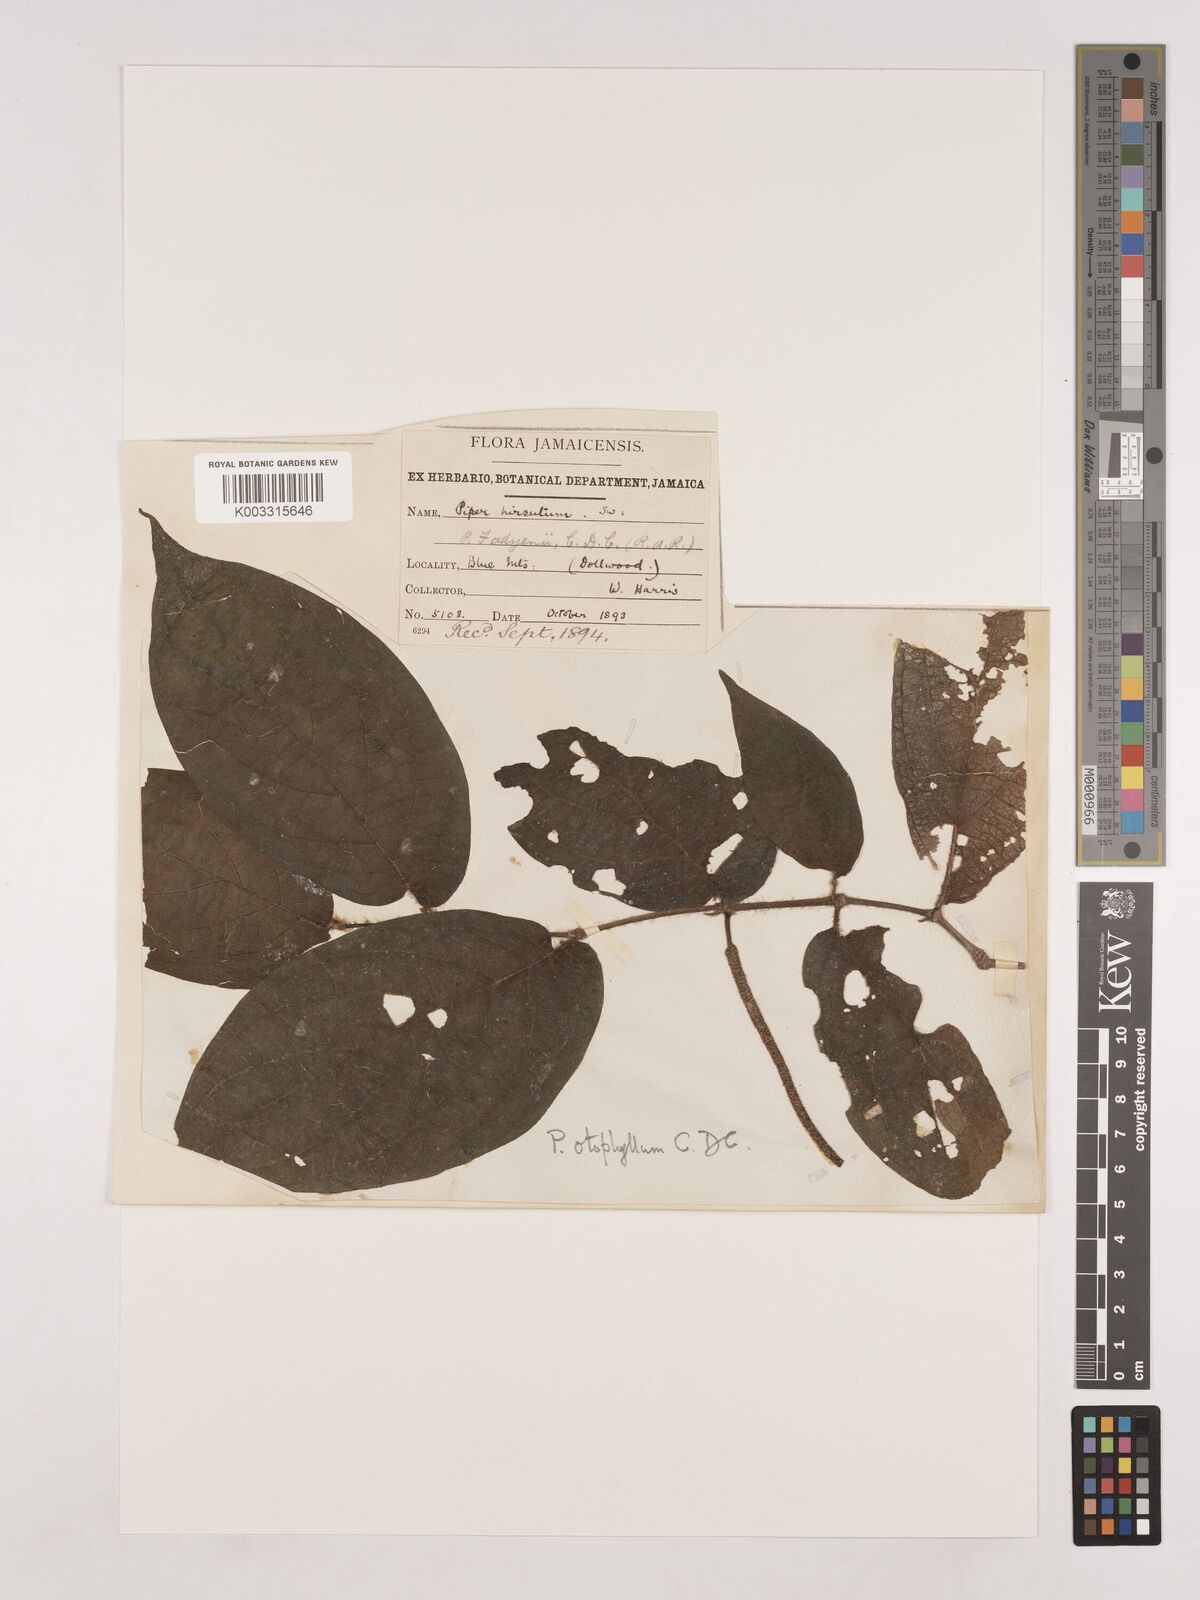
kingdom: Plantae
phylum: Tracheophyta
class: Magnoliopsida
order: Piperales
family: Piperaceae
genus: Piper
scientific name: Piper fadyenii
